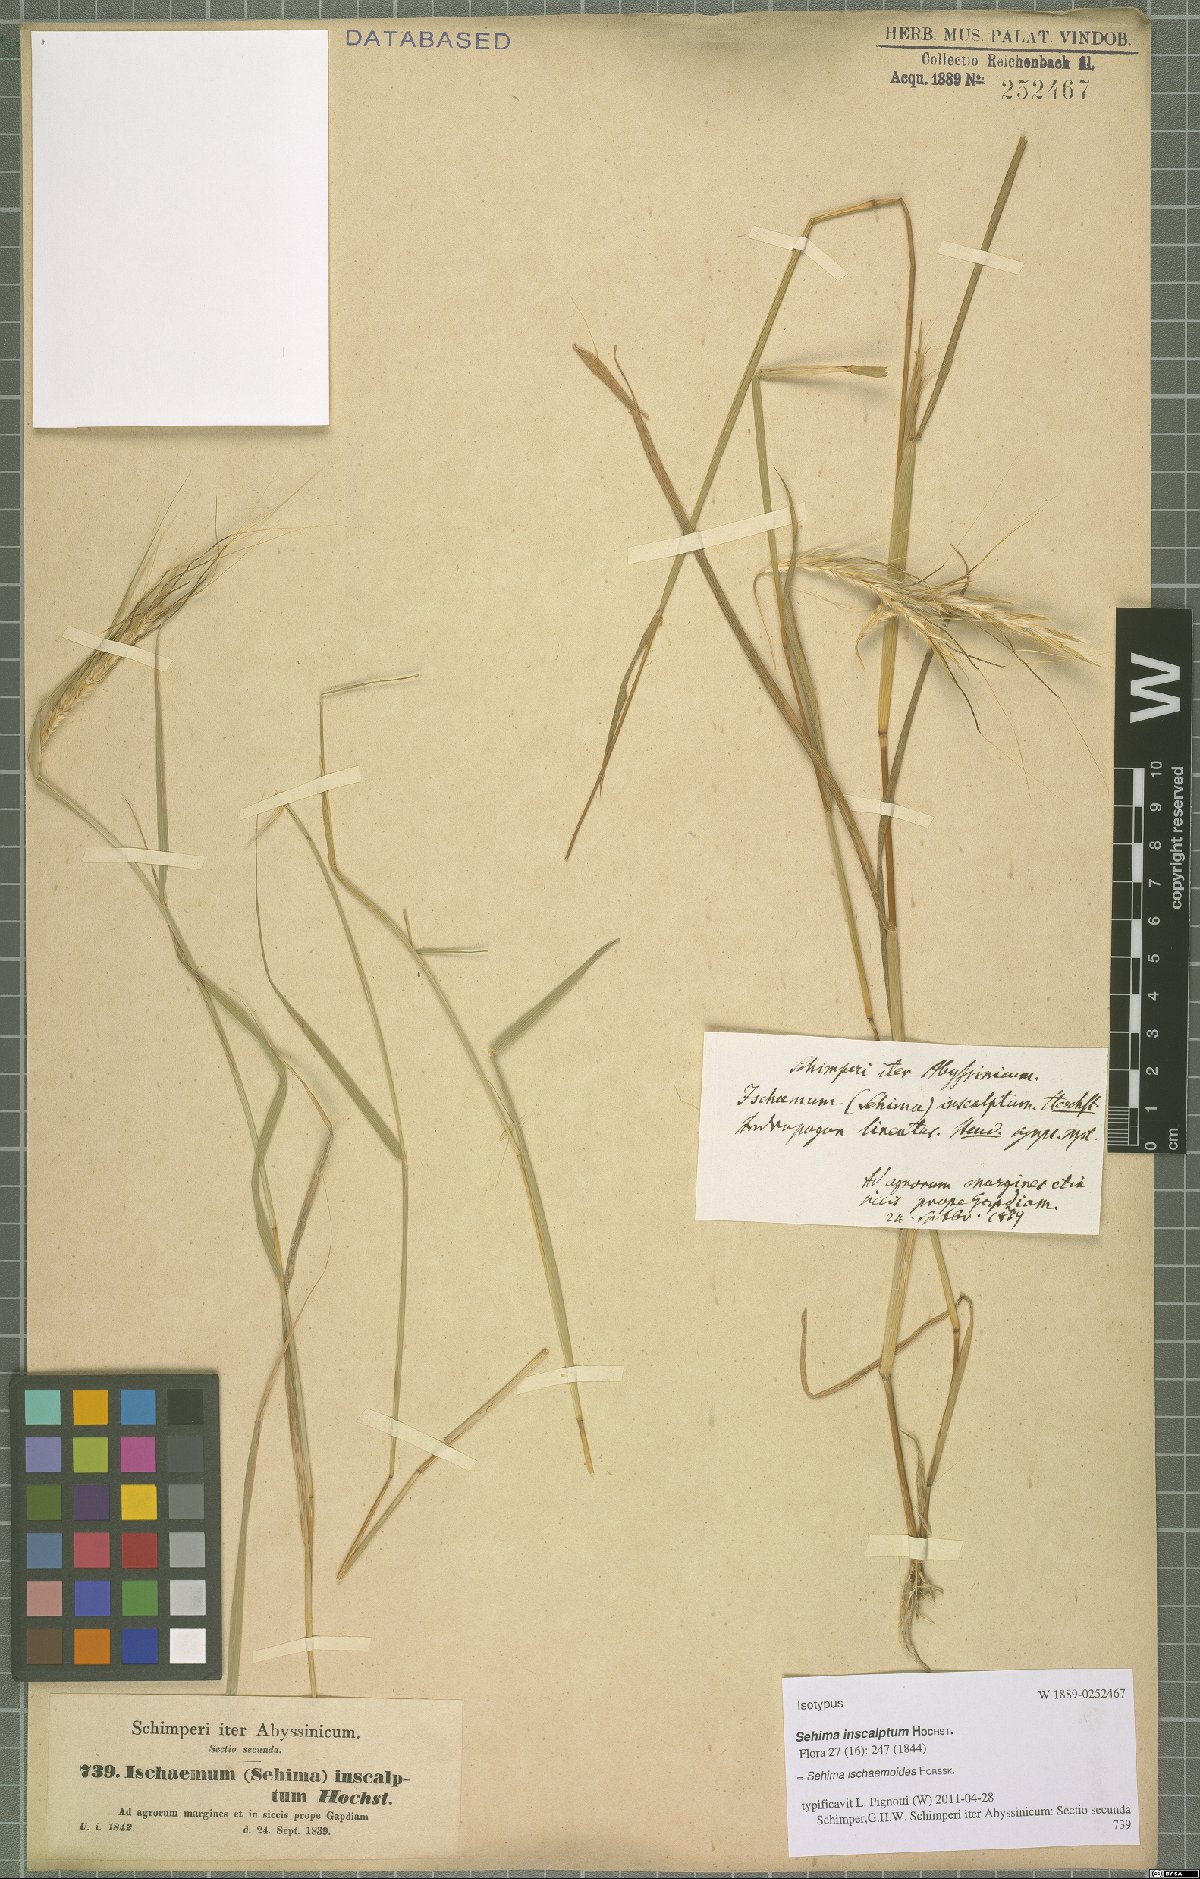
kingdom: Plantae
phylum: Tracheophyta
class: Liliopsida
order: Poales
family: Poaceae
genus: Sehima
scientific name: Sehima ischaemoides
